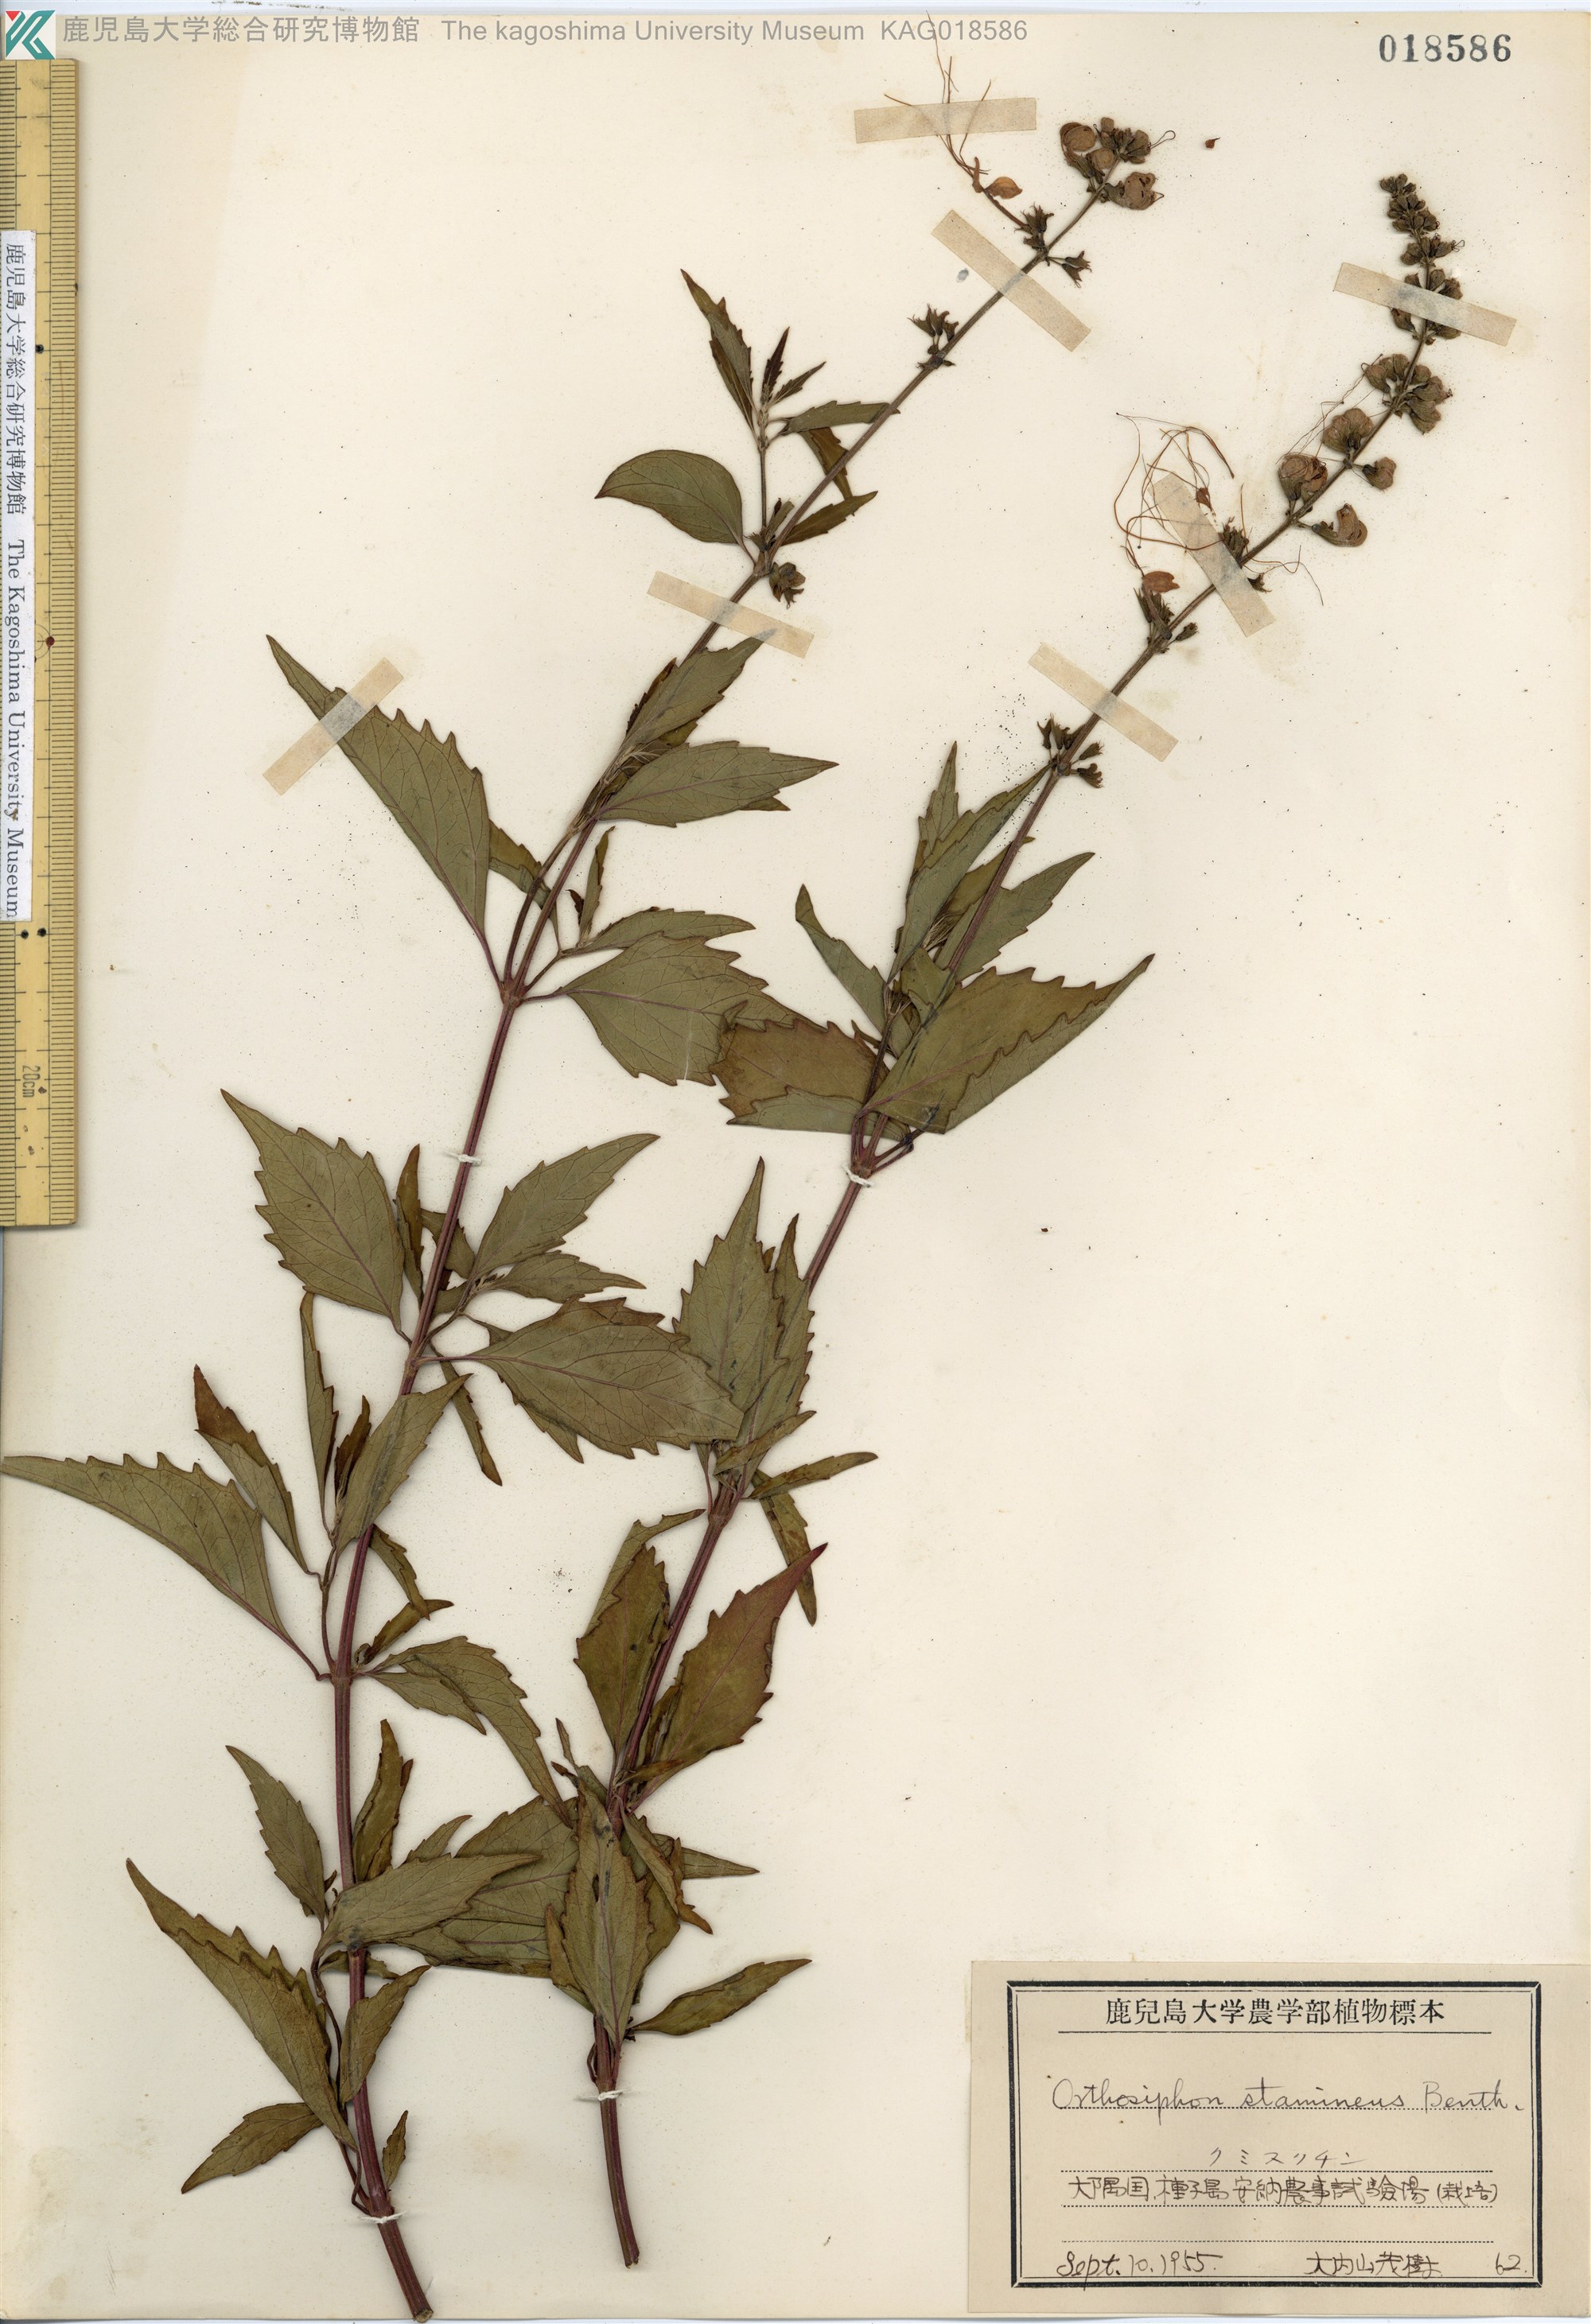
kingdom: Plantae
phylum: Tracheophyta
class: Magnoliopsida
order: Lamiales
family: Lamiaceae
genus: Orthosiphon
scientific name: Orthosiphon aristatus
